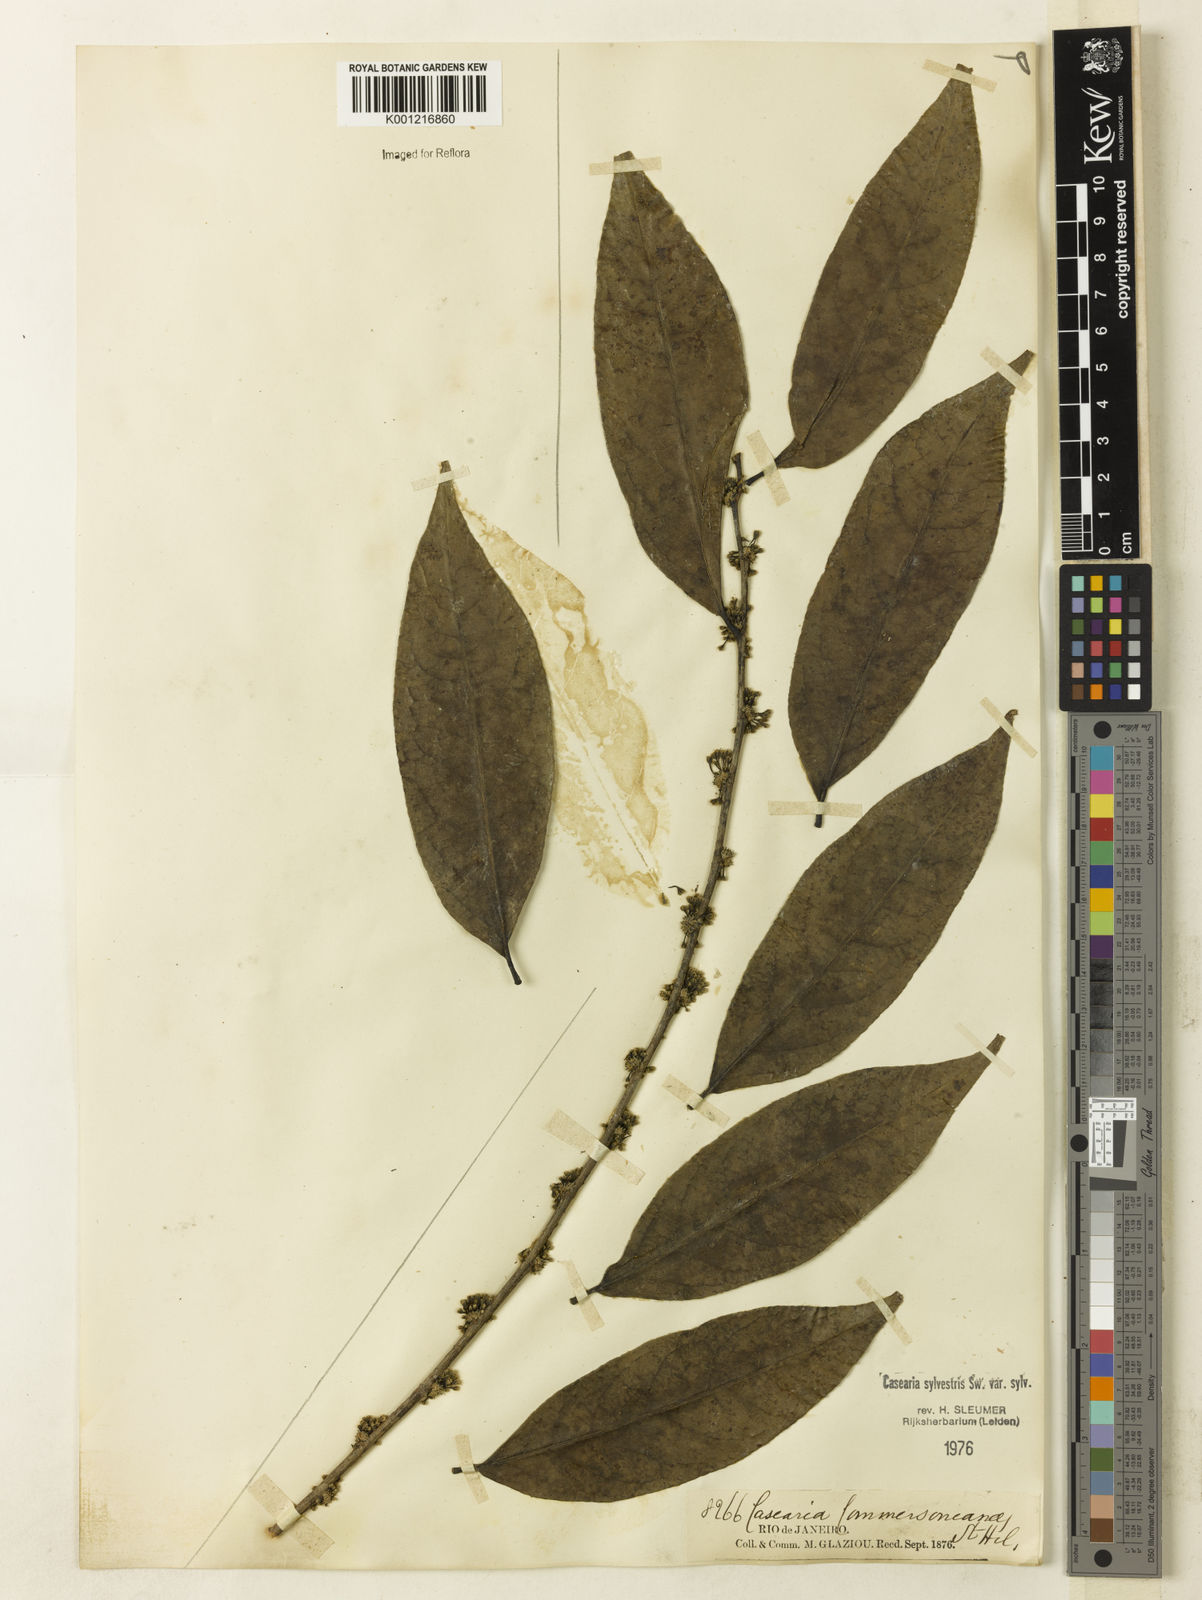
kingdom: Plantae
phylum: Tracheophyta
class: Magnoliopsida
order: Malpighiales
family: Salicaceae
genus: Casearia
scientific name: Casearia sylvestris
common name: Wild sage
